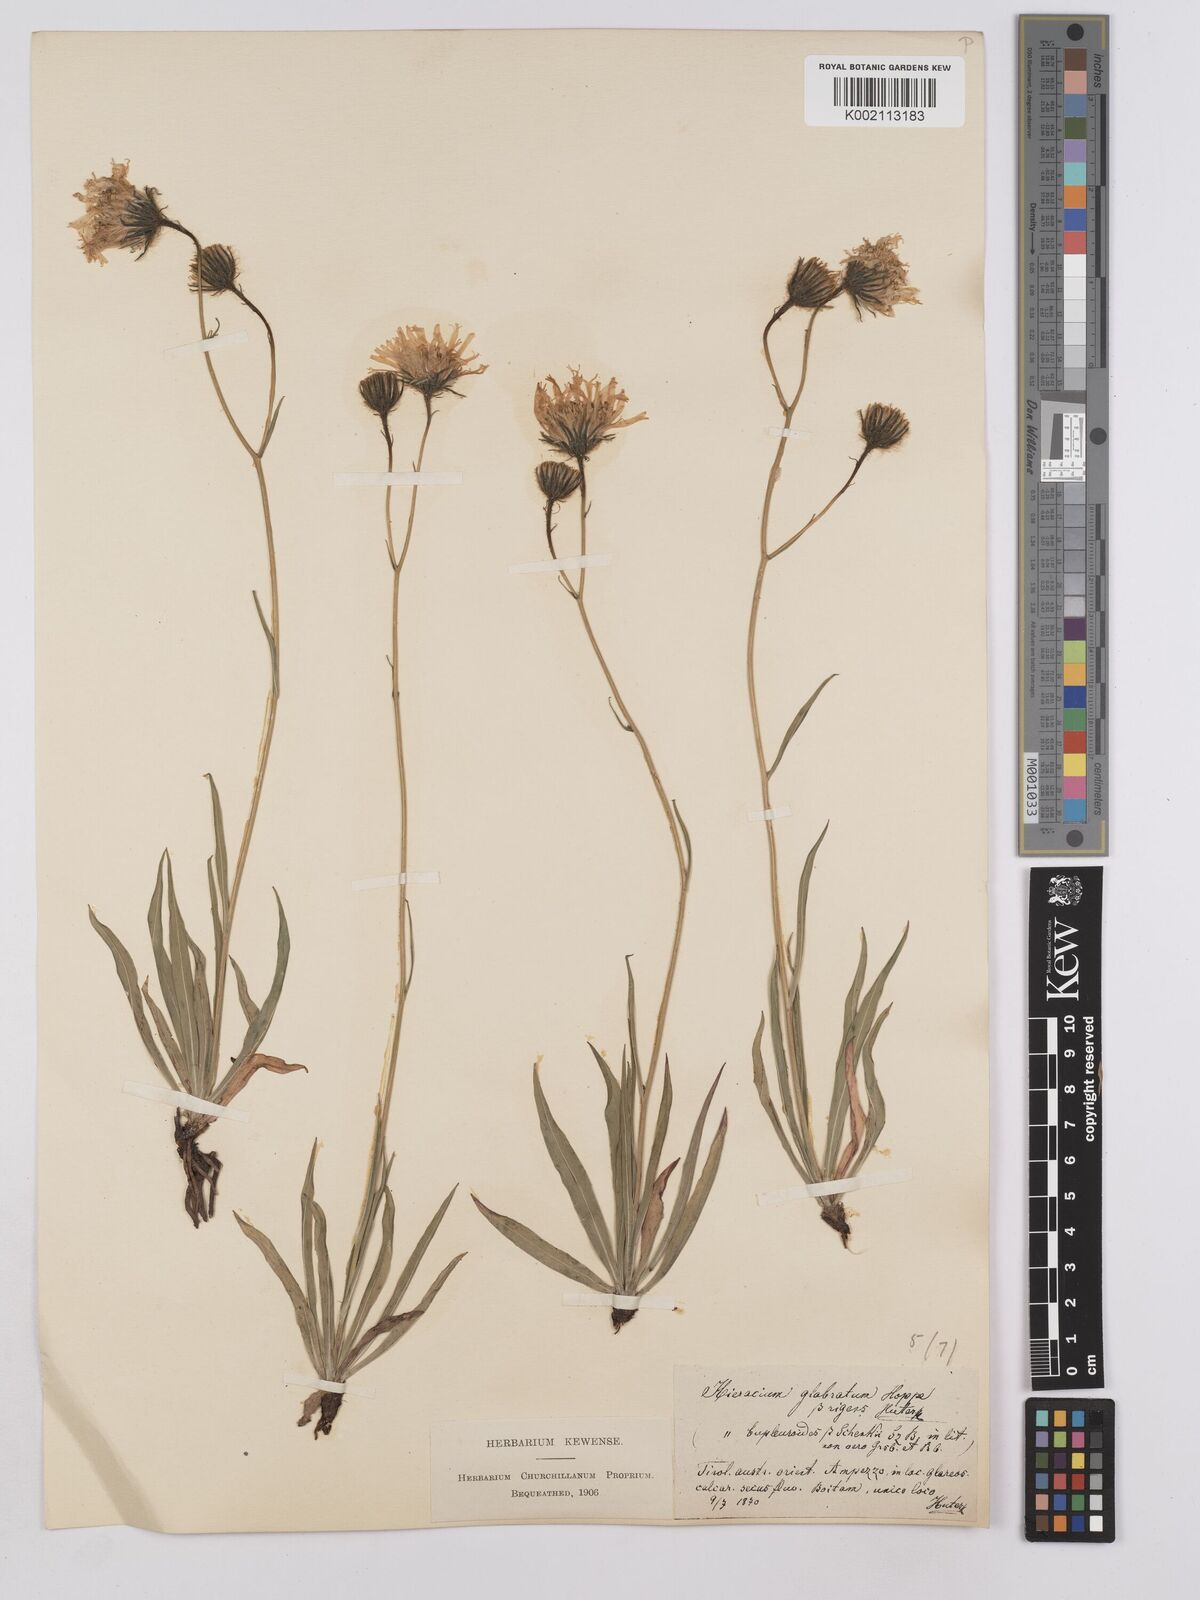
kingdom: Plantae
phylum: Tracheophyta
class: Magnoliopsida
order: Asterales
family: Asteraceae
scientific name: Asteraceae
